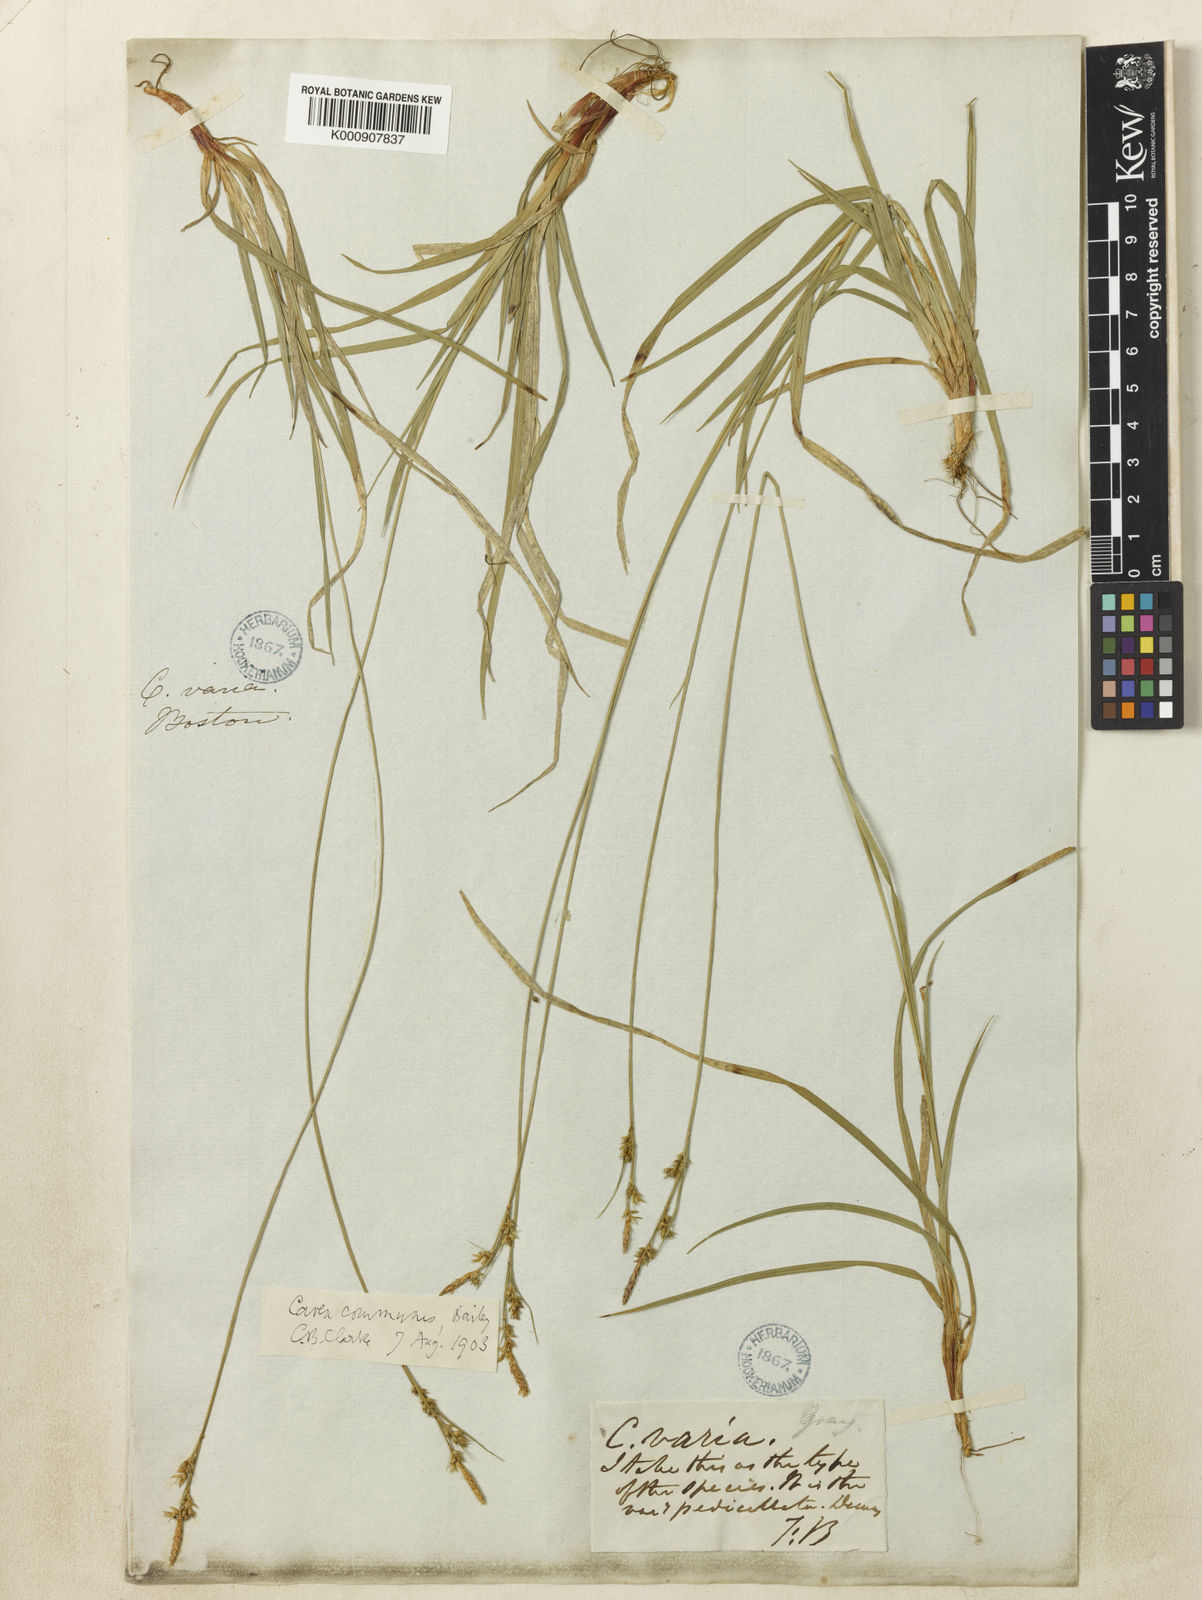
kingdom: Plantae
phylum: Tracheophyta
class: Liliopsida
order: Poales
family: Cyperaceae
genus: Carex
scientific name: Carex communis
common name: Colonial oak sedge
